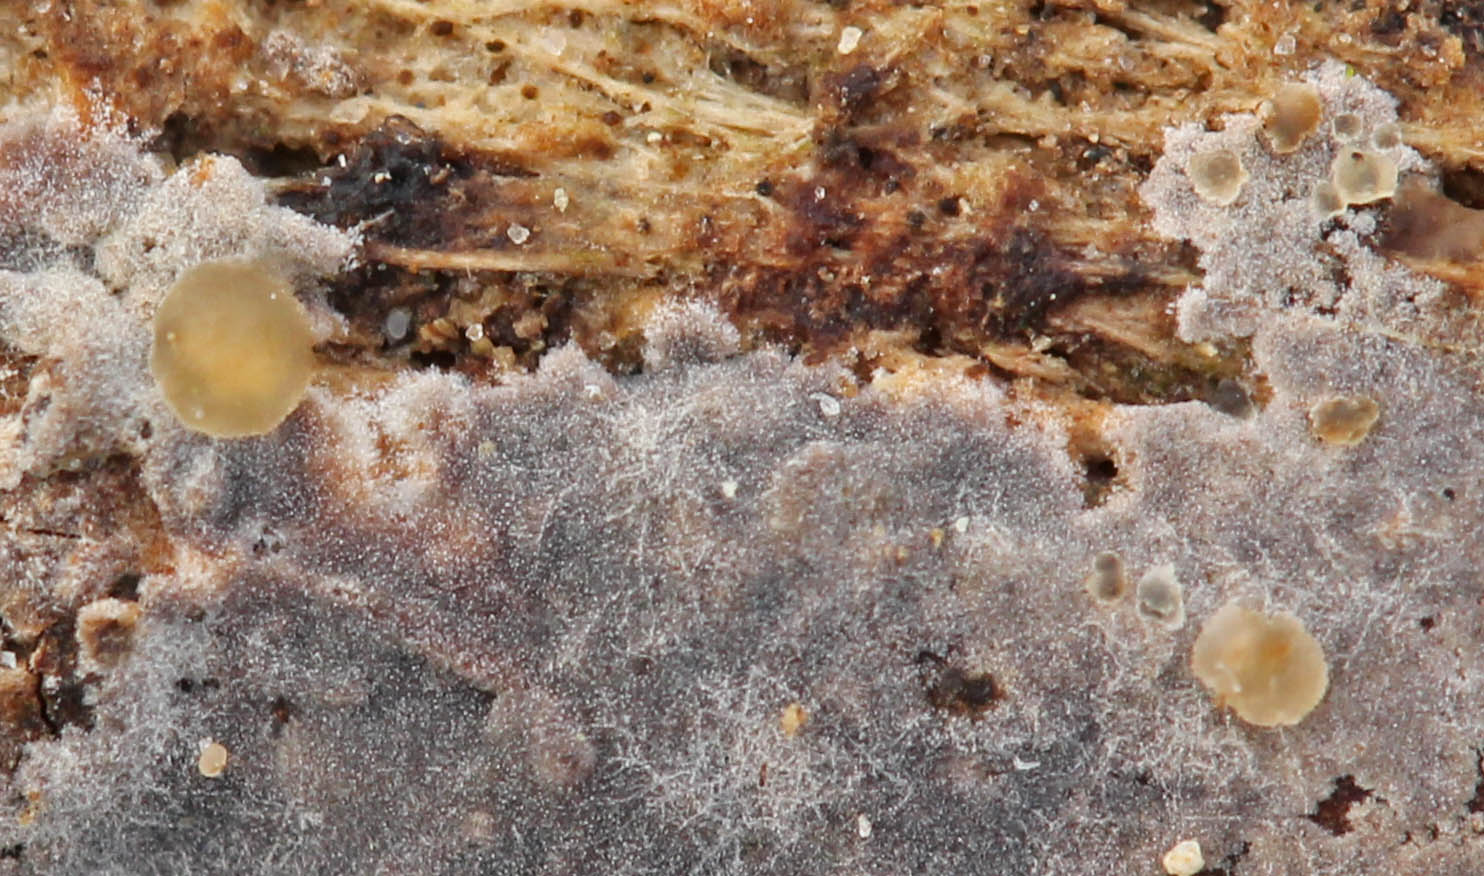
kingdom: Fungi
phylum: Basidiomycota
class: Tremellomycetes
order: Tremellales
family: Tremellaceae
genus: Tremella
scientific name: Tremella versicolor
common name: voksskind-bævresvamp
